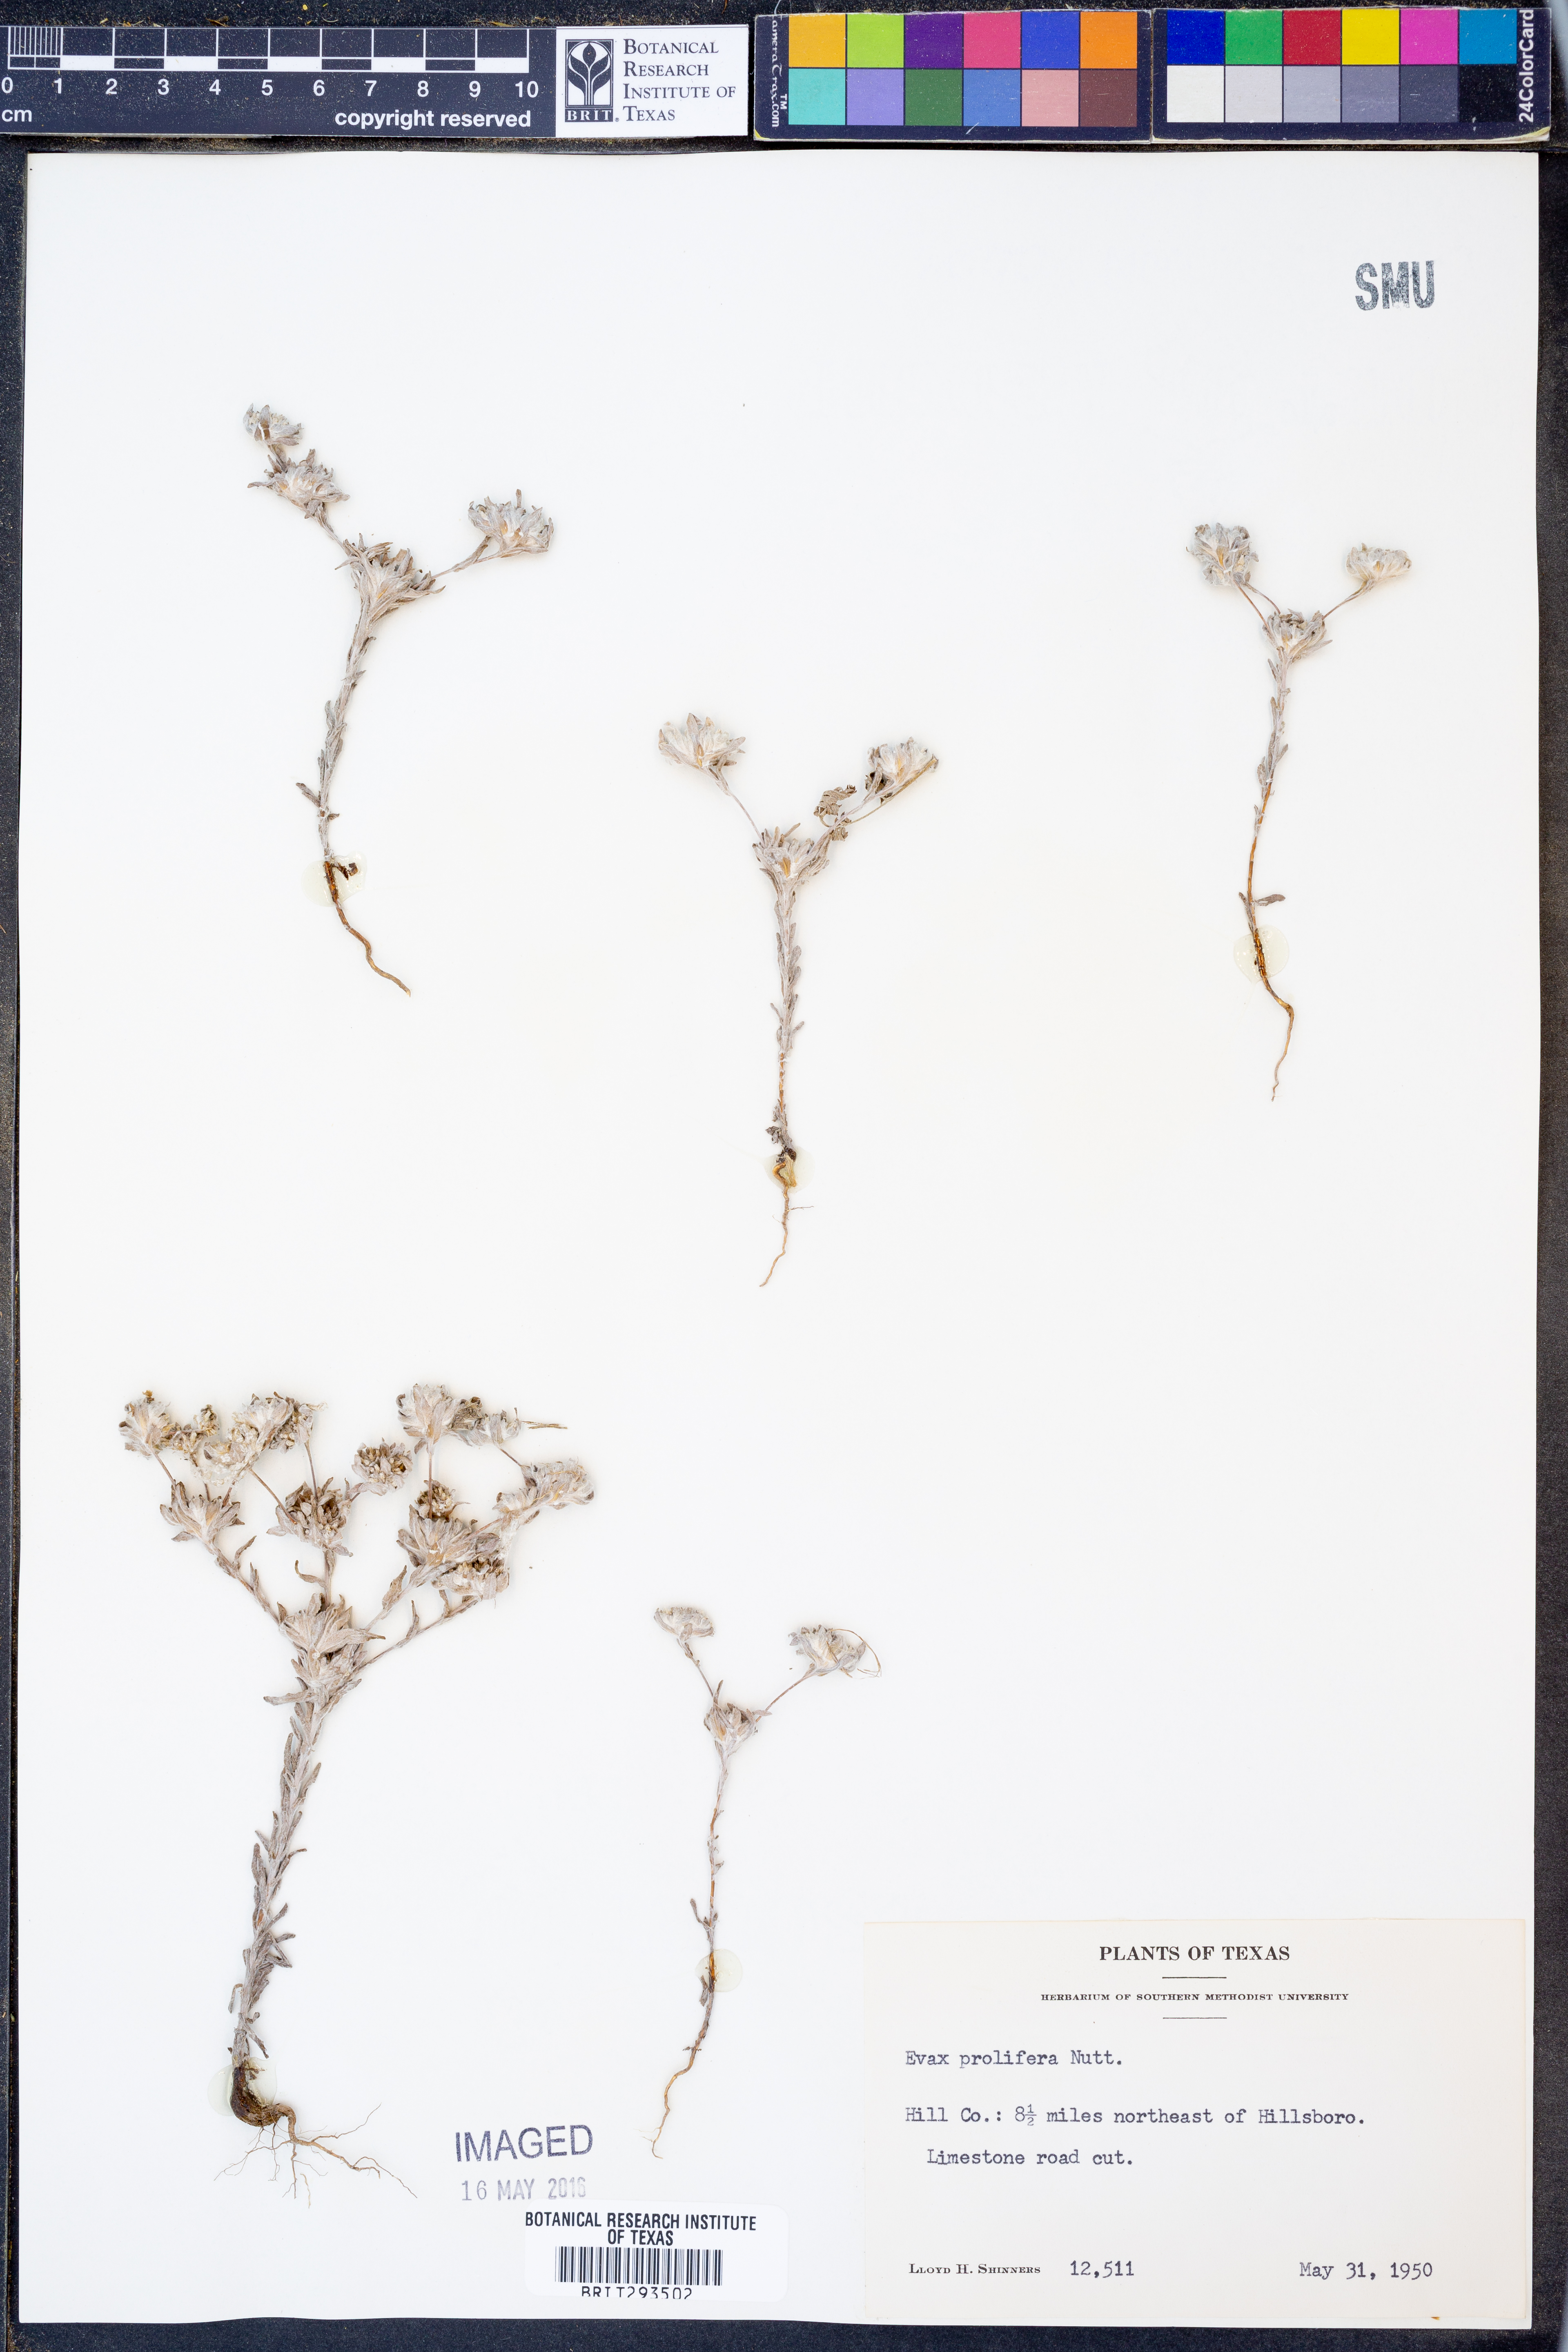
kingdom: Plantae
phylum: Tracheophyta
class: Magnoliopsida
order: Asterales
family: Asteraceae
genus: Diaperia
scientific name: Diaperia prolifera
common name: Big-head rabbit-tobacco
